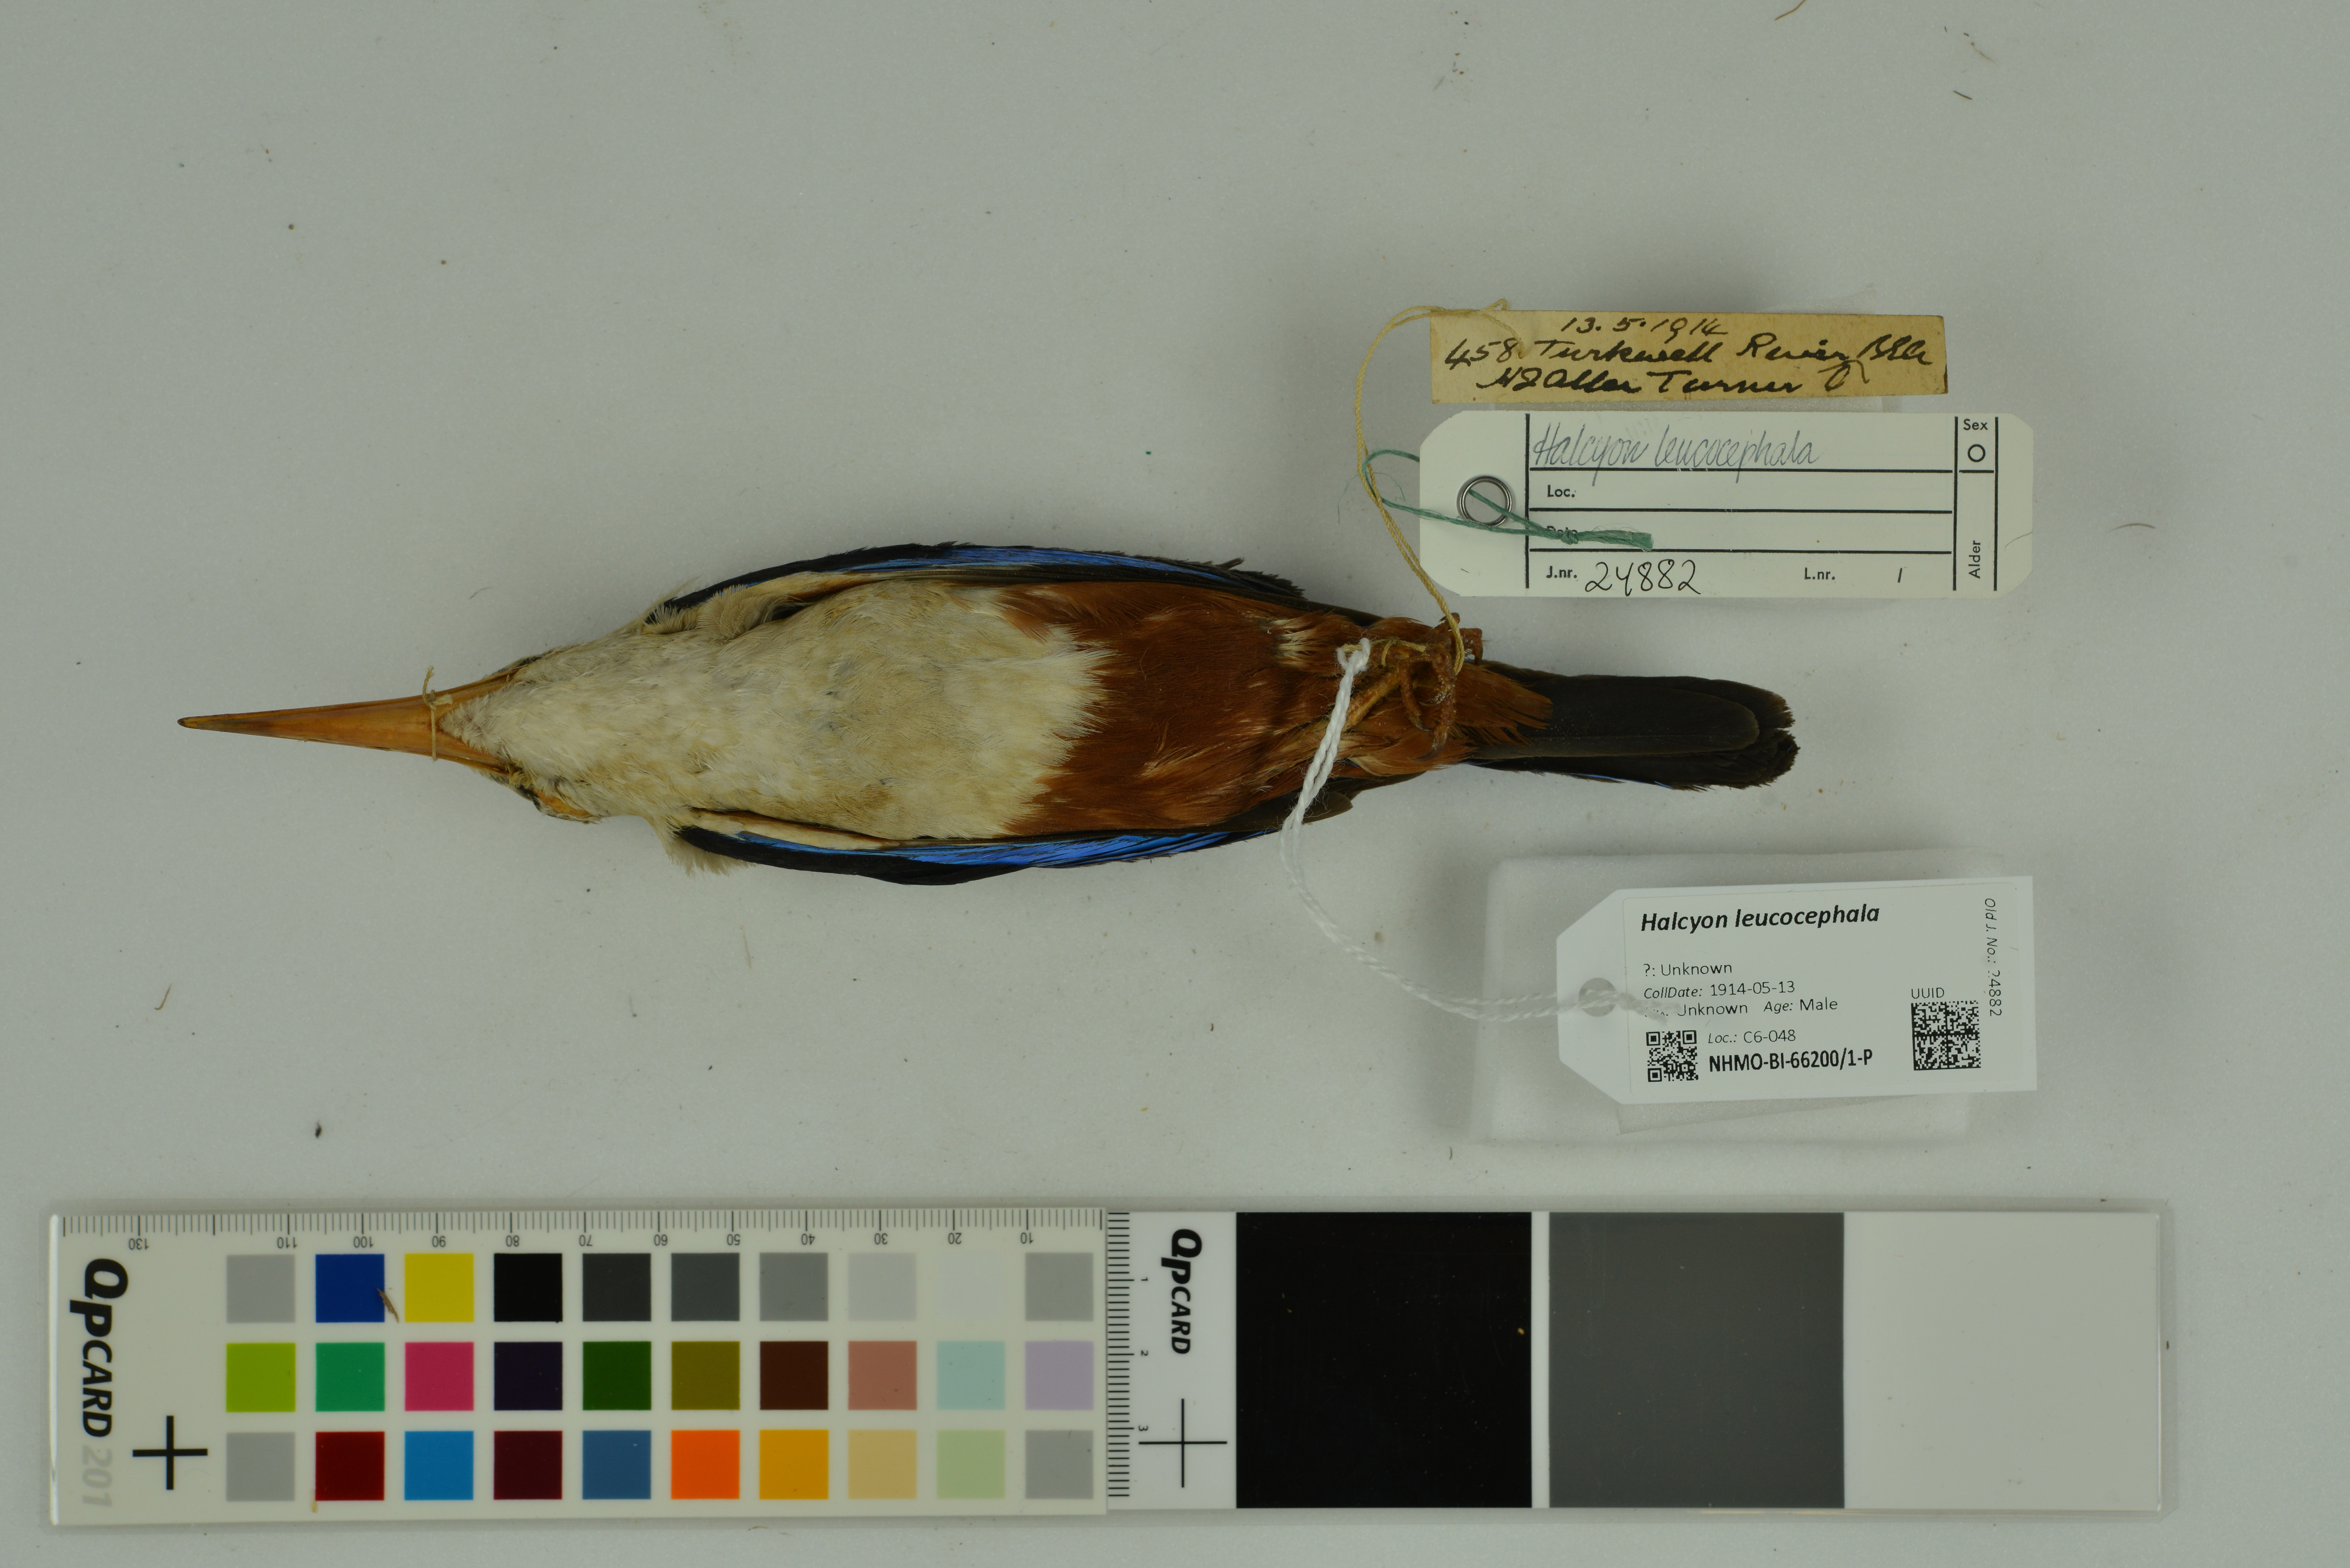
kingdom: Animalia
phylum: Chordata
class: Aves
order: Coraciiformes
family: Alcedinidae
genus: Halcyon
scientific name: Halcyon leucocephala
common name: Grey-headed kingfisher
